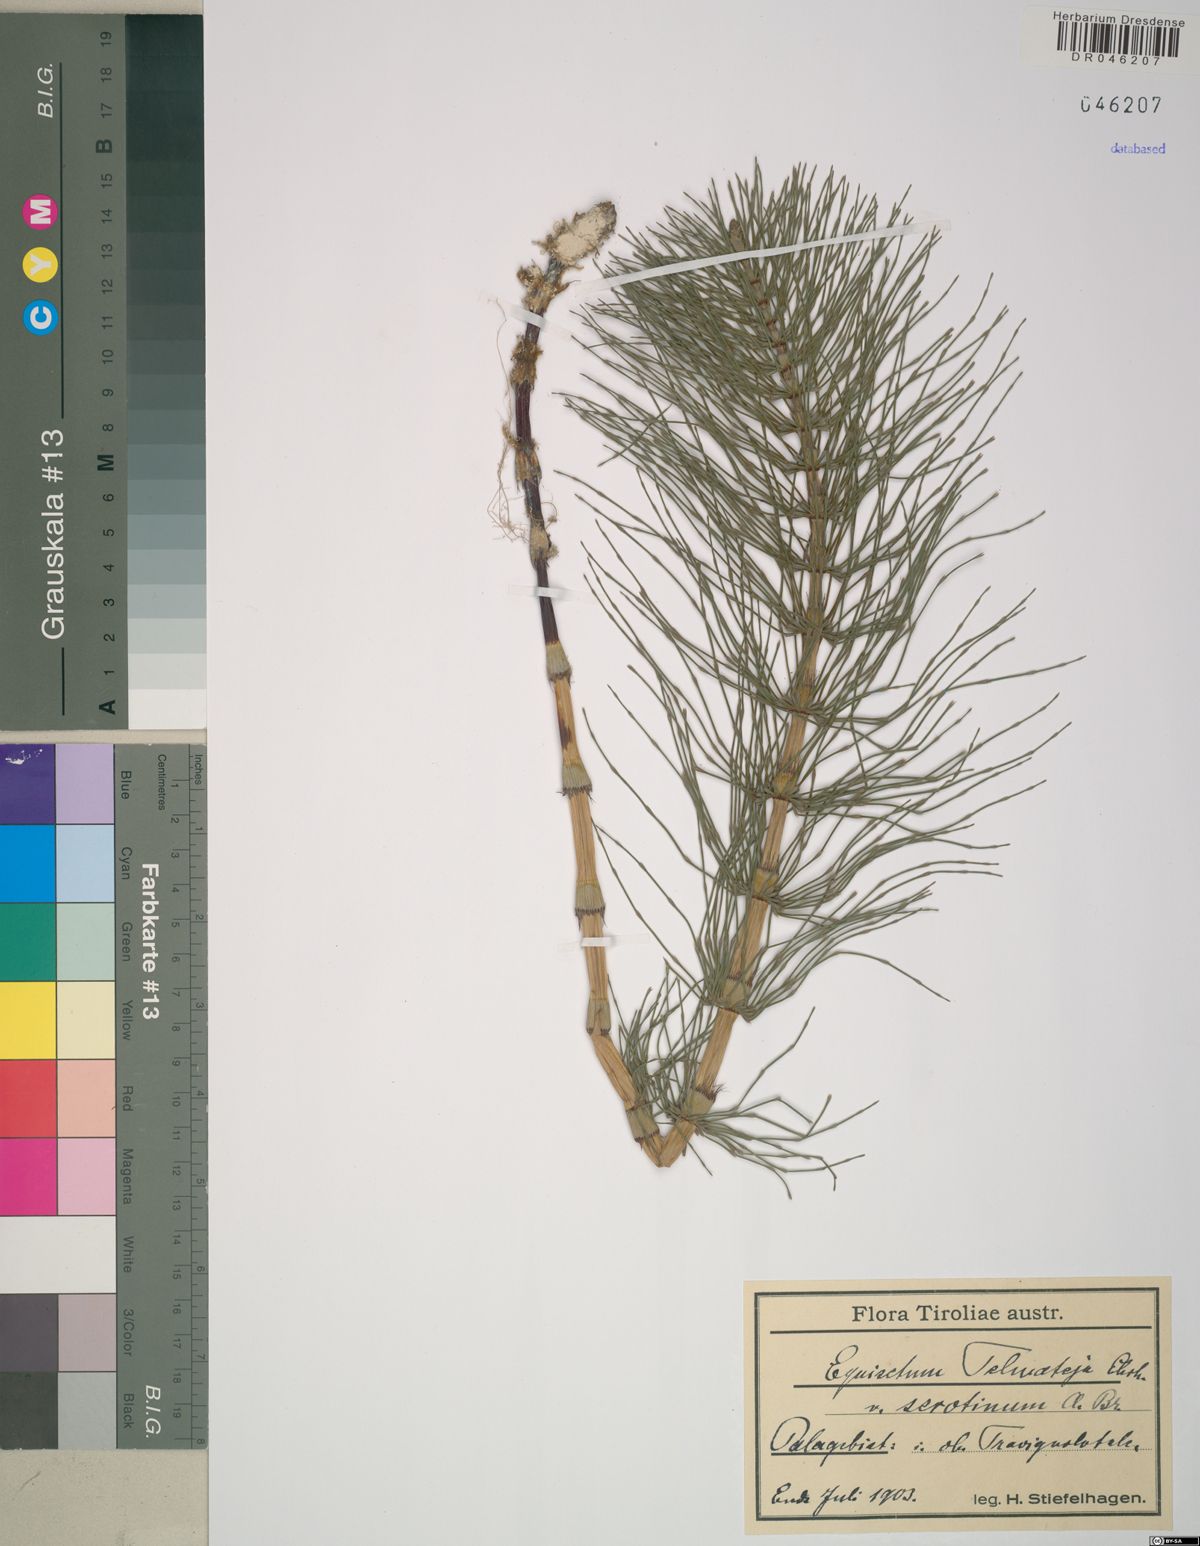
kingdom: Plantae
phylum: Tracheophyta
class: Polypodiopsida
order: Equisetales
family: Equisetaceae
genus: Equisetum
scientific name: Equisetum telmateia
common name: Great horsetail
